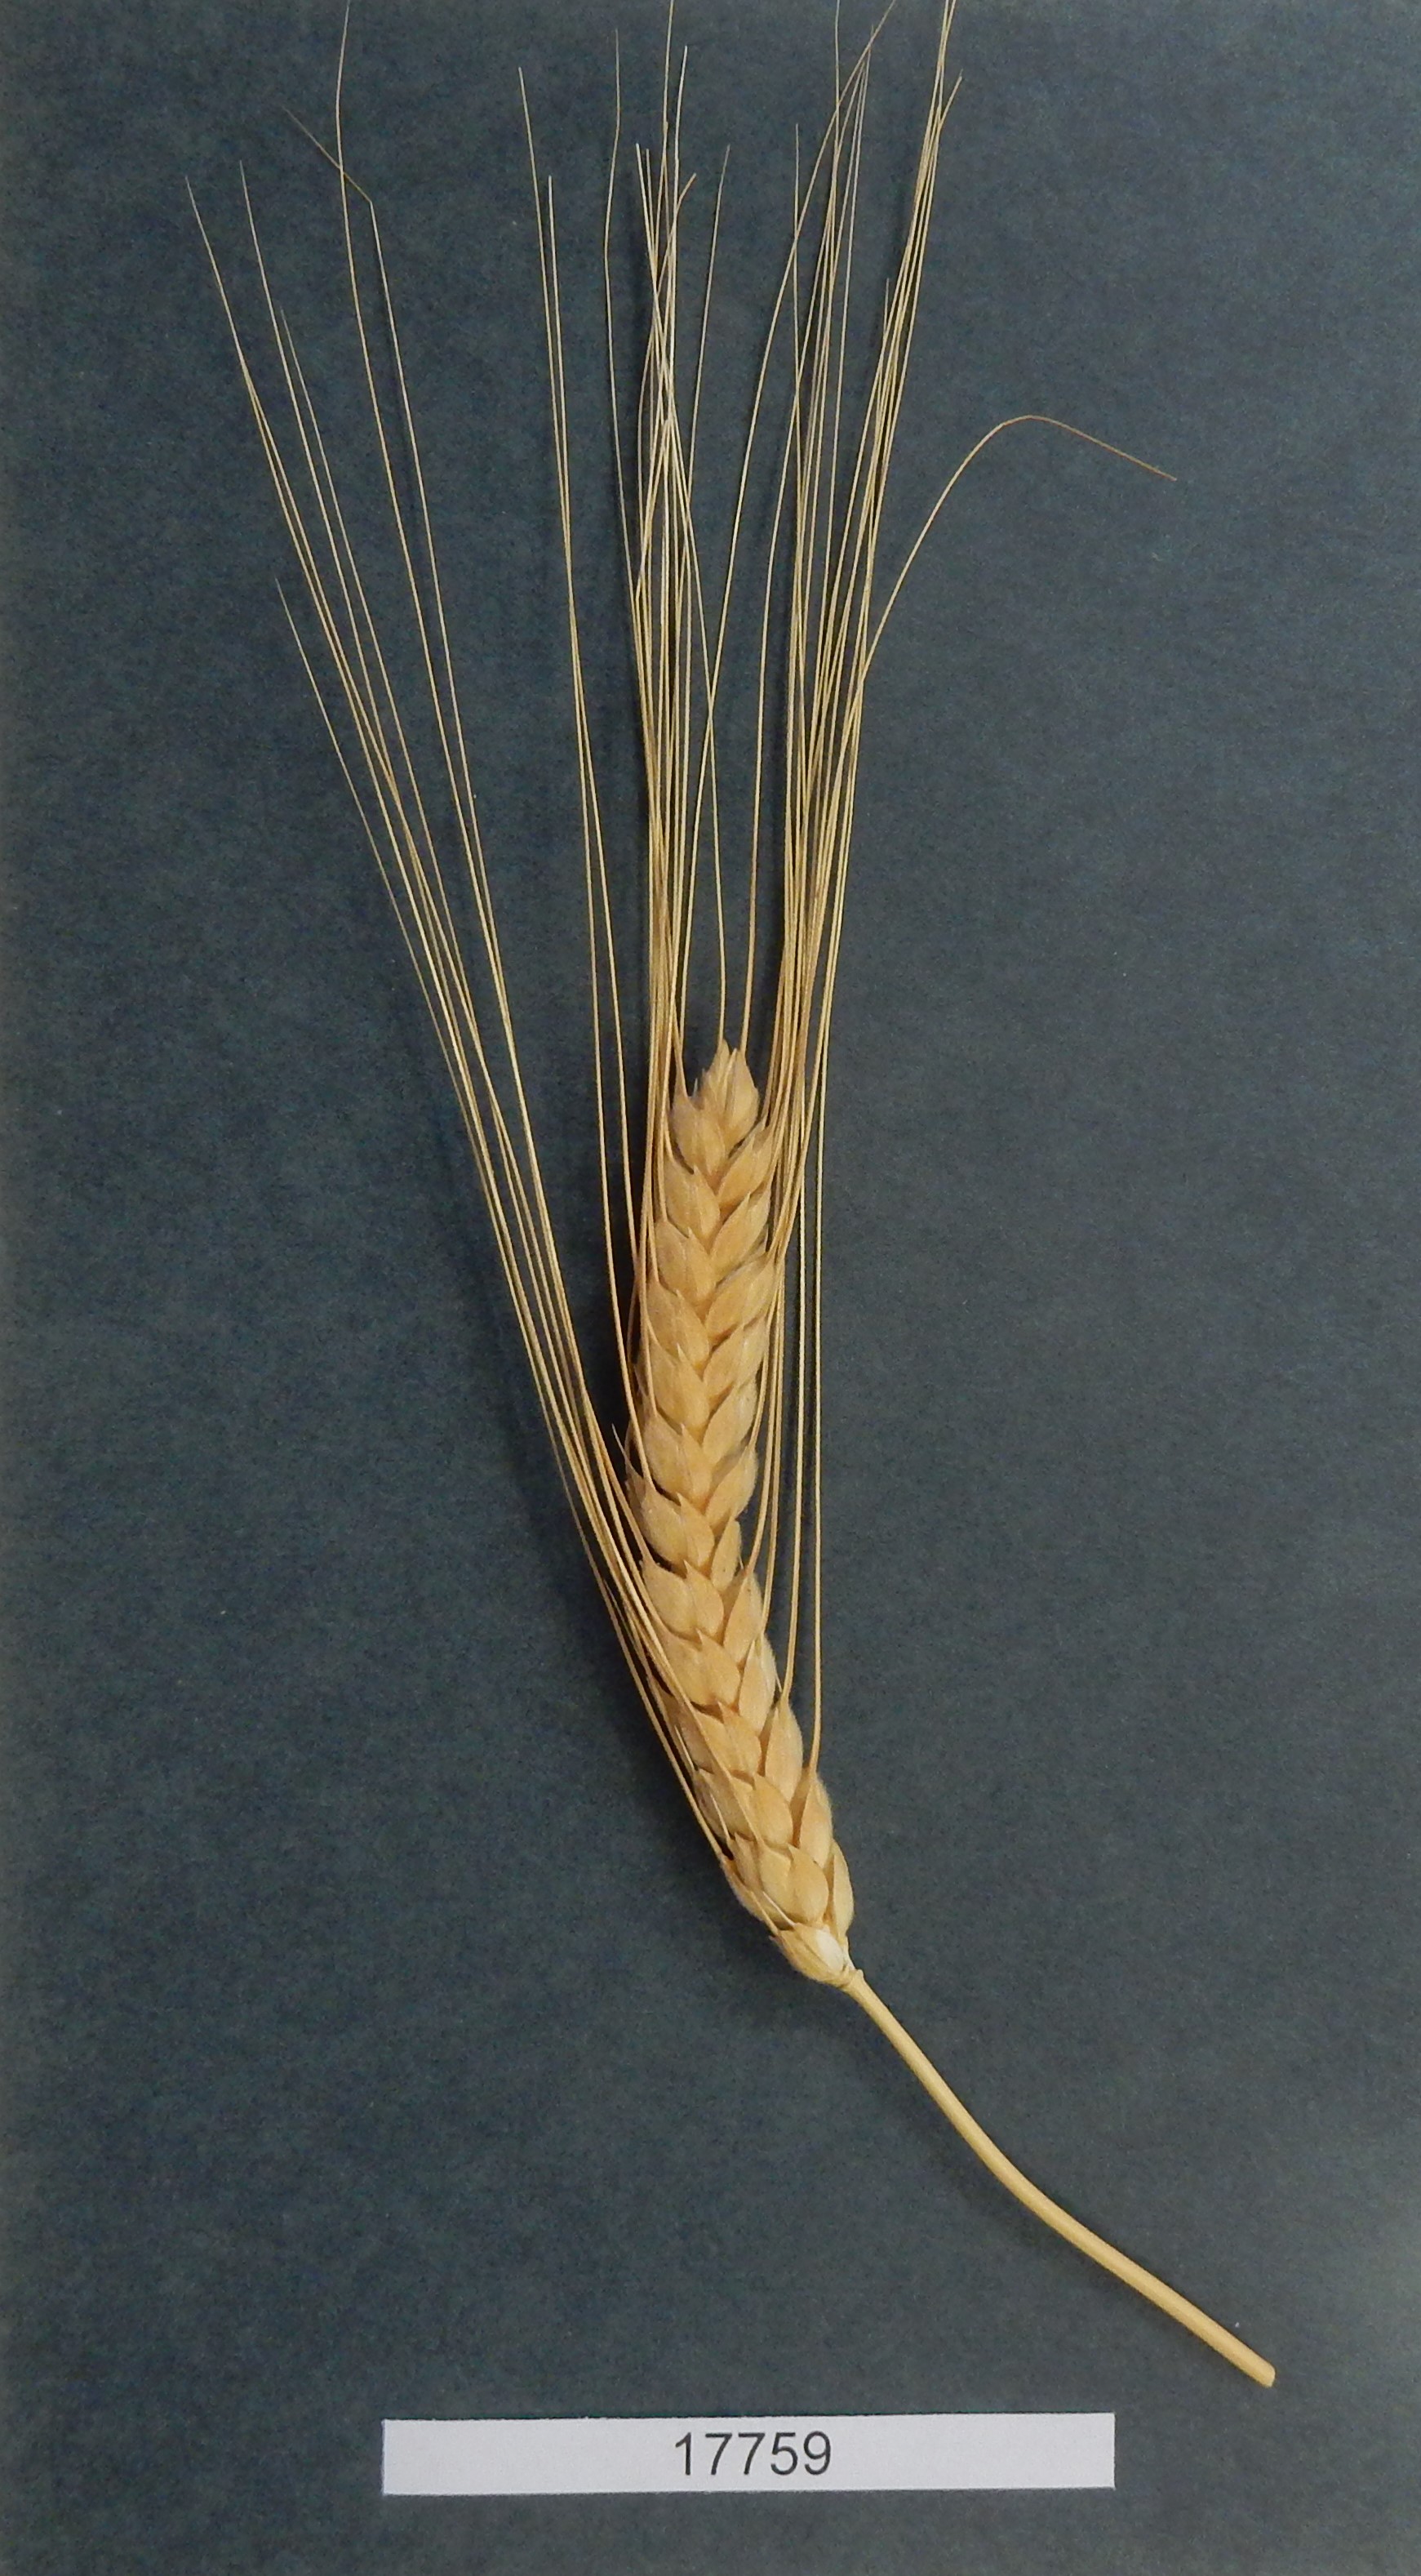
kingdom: Plantae
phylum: Tracheophyta
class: Liliopsida
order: Poales
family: Poaceae
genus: Triticum
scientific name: Triticum turgidum
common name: Wheat
